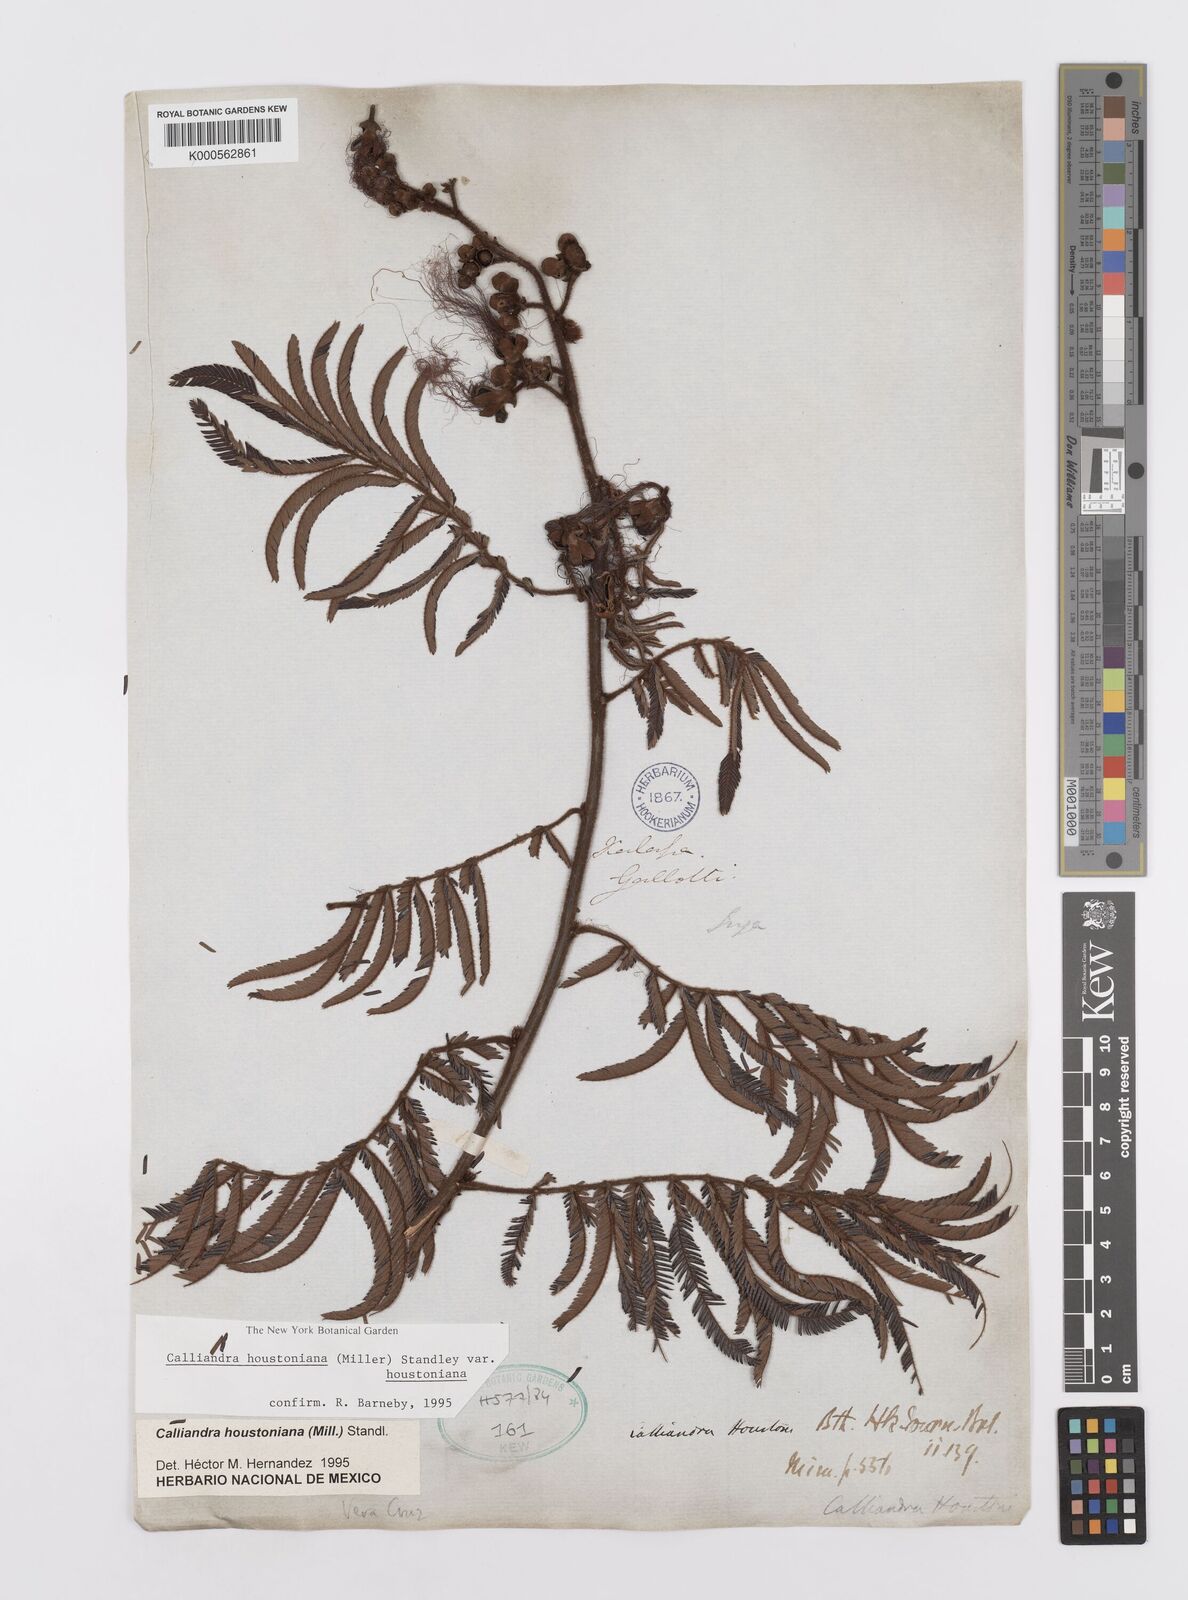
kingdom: Plantae
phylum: Tracheophyta
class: Magnoliopsida
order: Fabales
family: Fabaceae
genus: Calliandra
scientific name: Calliandra houstoniana
